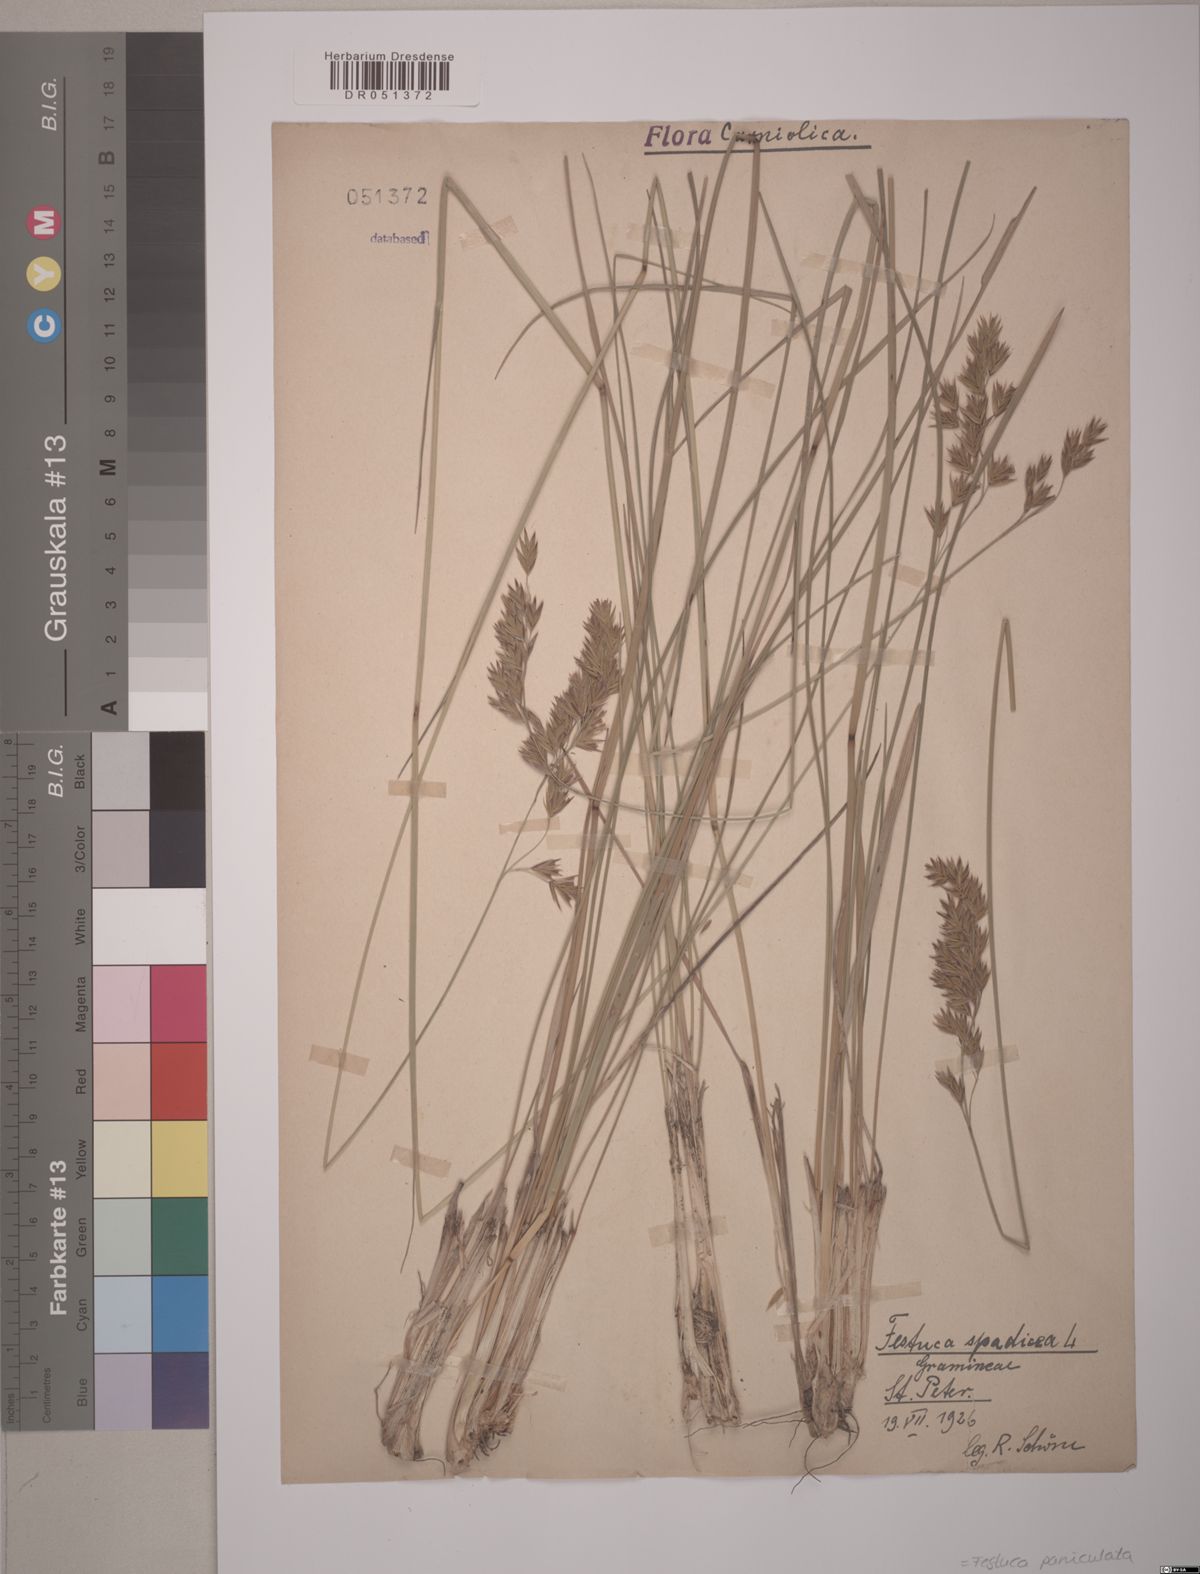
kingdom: Plantae
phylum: Tracheophyta
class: Liliopsida
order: Poales
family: Poaceae
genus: Patzkea
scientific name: Patzkea paniculata
